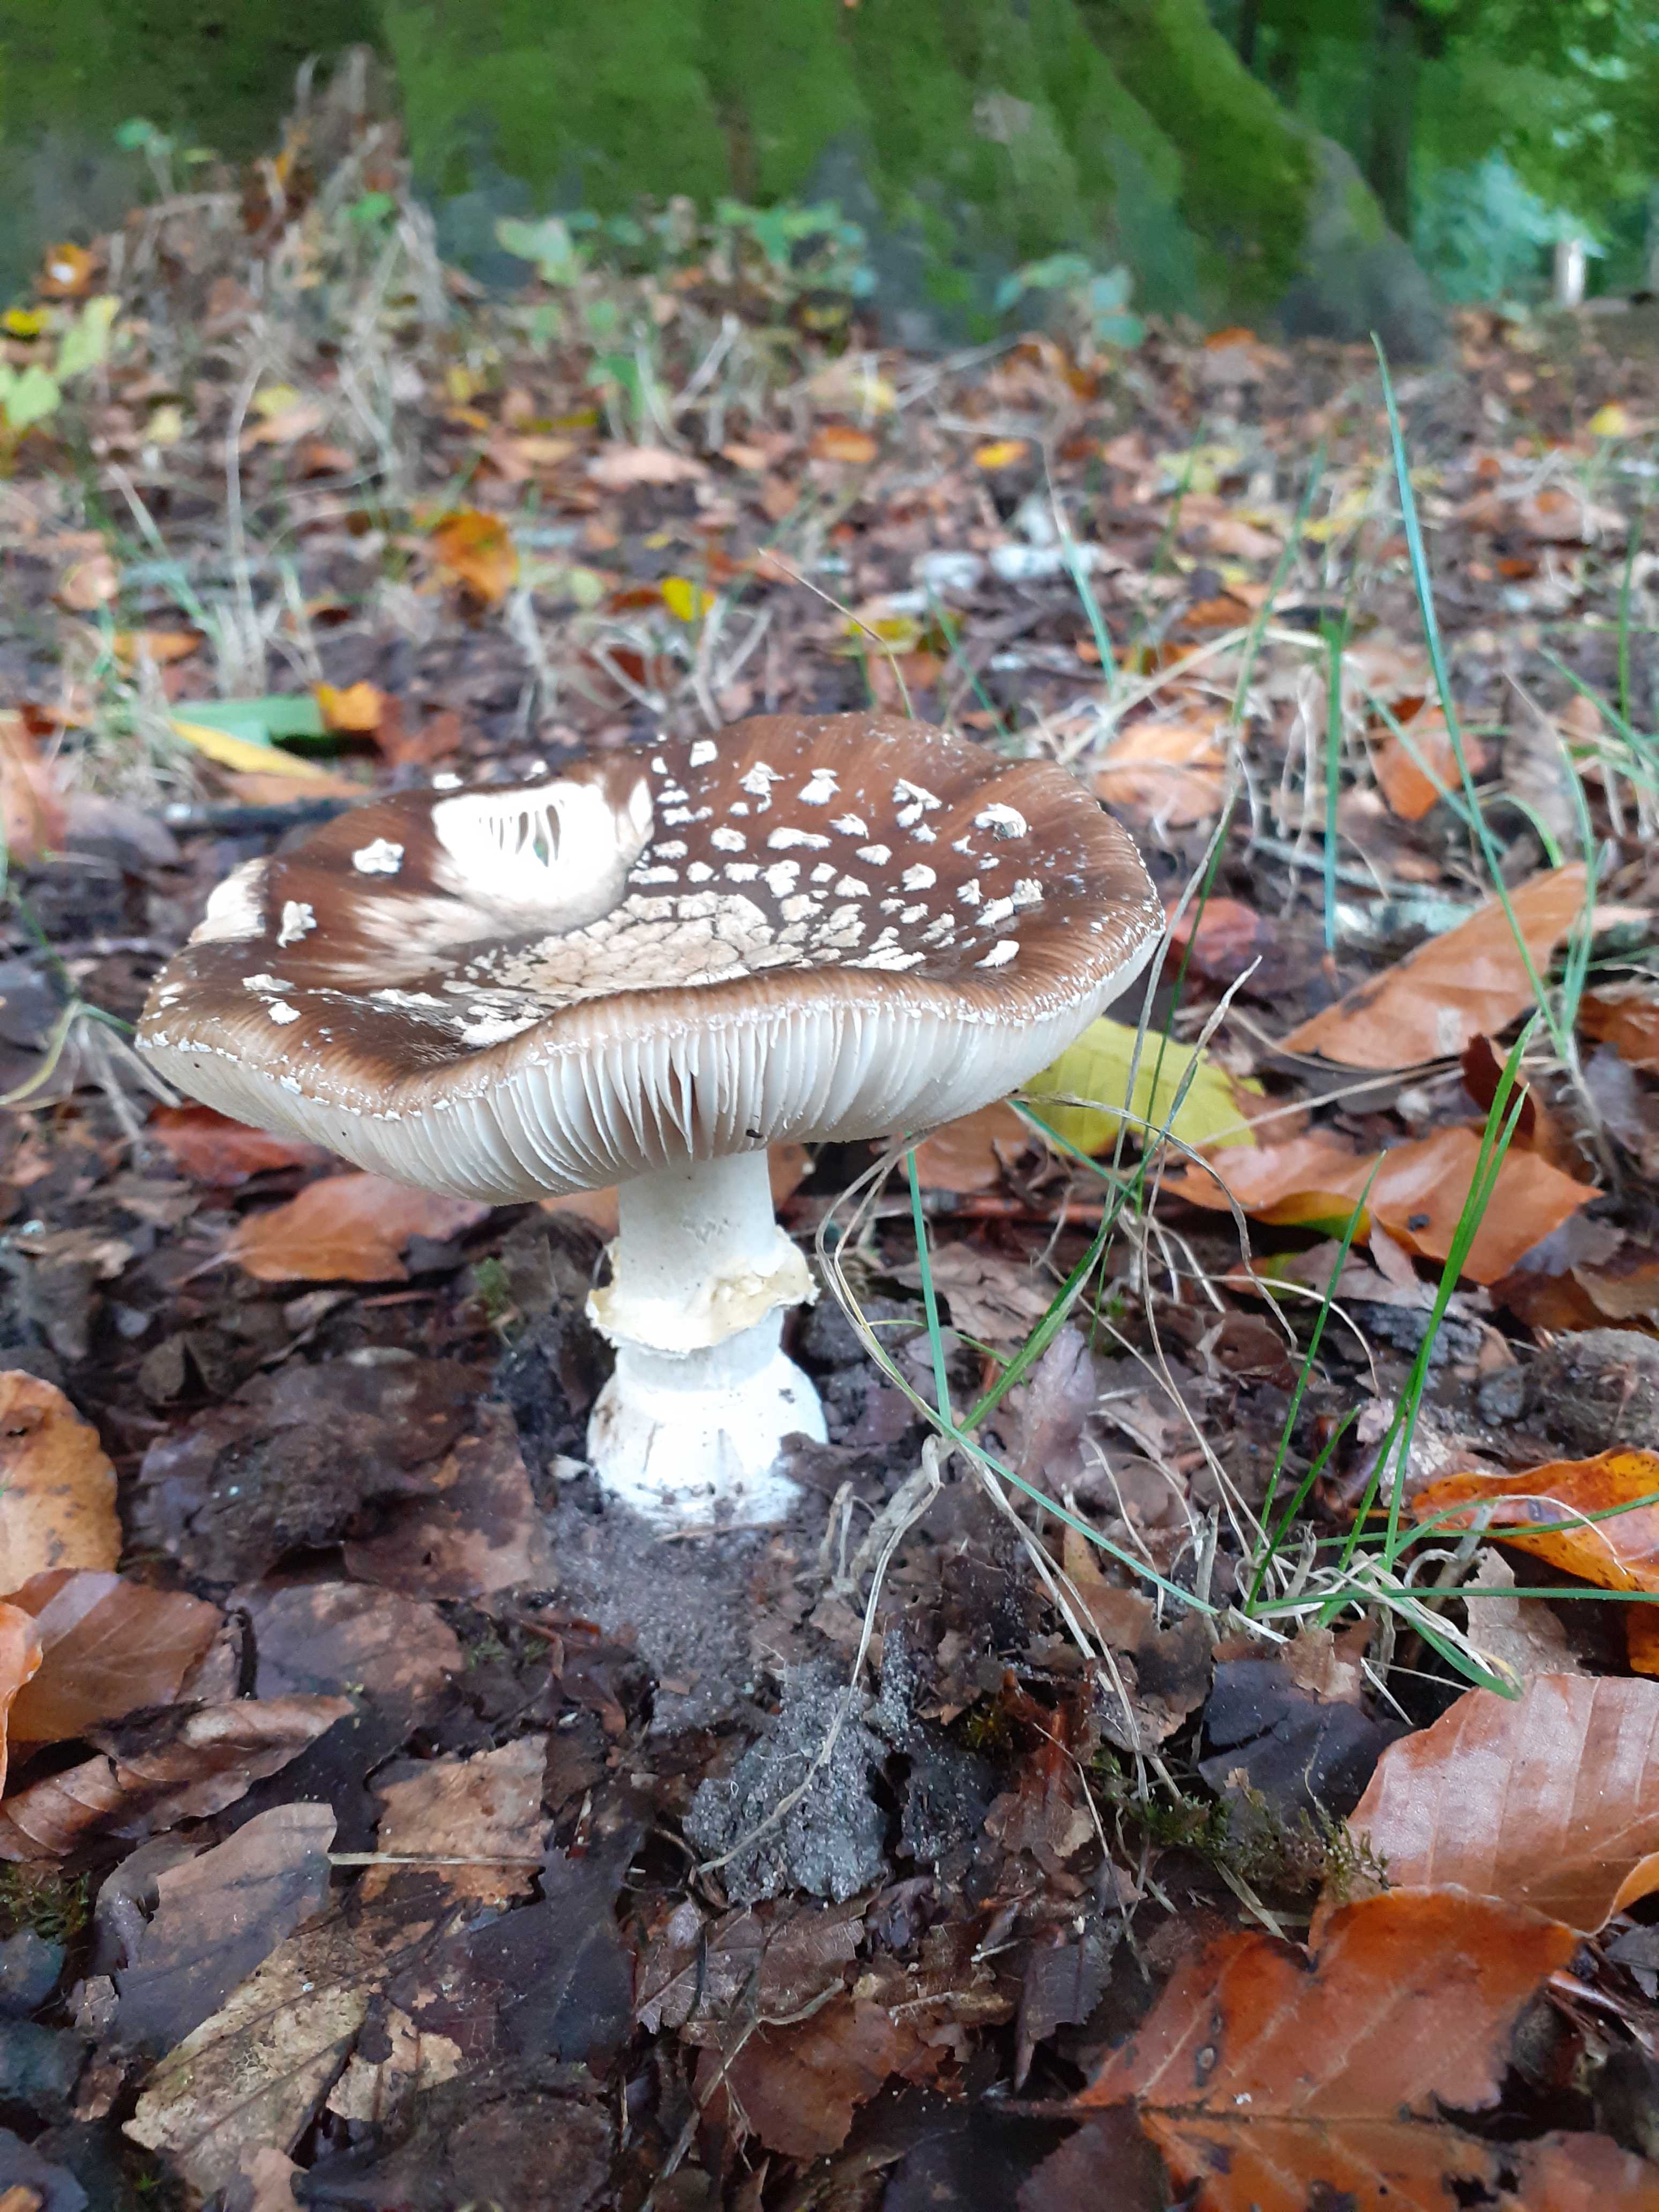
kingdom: Fungi
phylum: Basidiomycota
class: Agaricomycetes
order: Agaricales
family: Amanitaceae
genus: Amanita
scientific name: Amanita pantherina
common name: panter-fluesvamp
